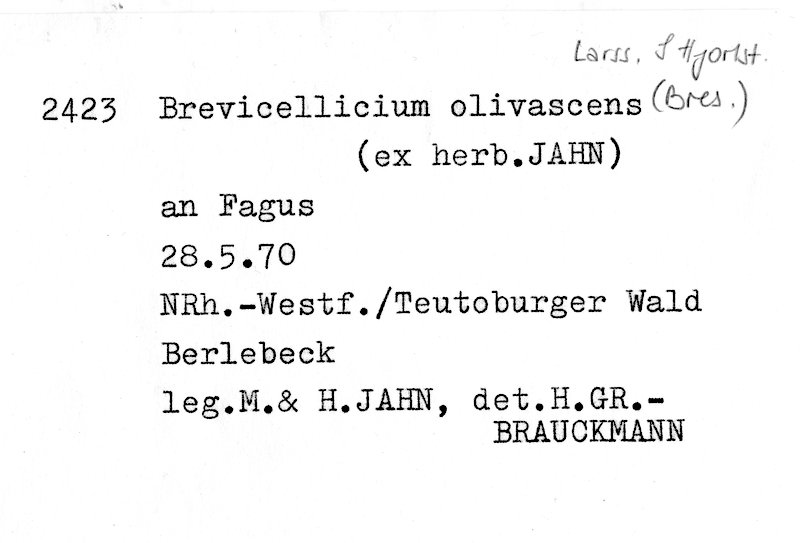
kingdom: Fungi
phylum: Basidiomycota
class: Agaricomycetes
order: Trechisporales
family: Hydnodontaceae
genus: Brevicellicium
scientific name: Brevicellicium olivascens
